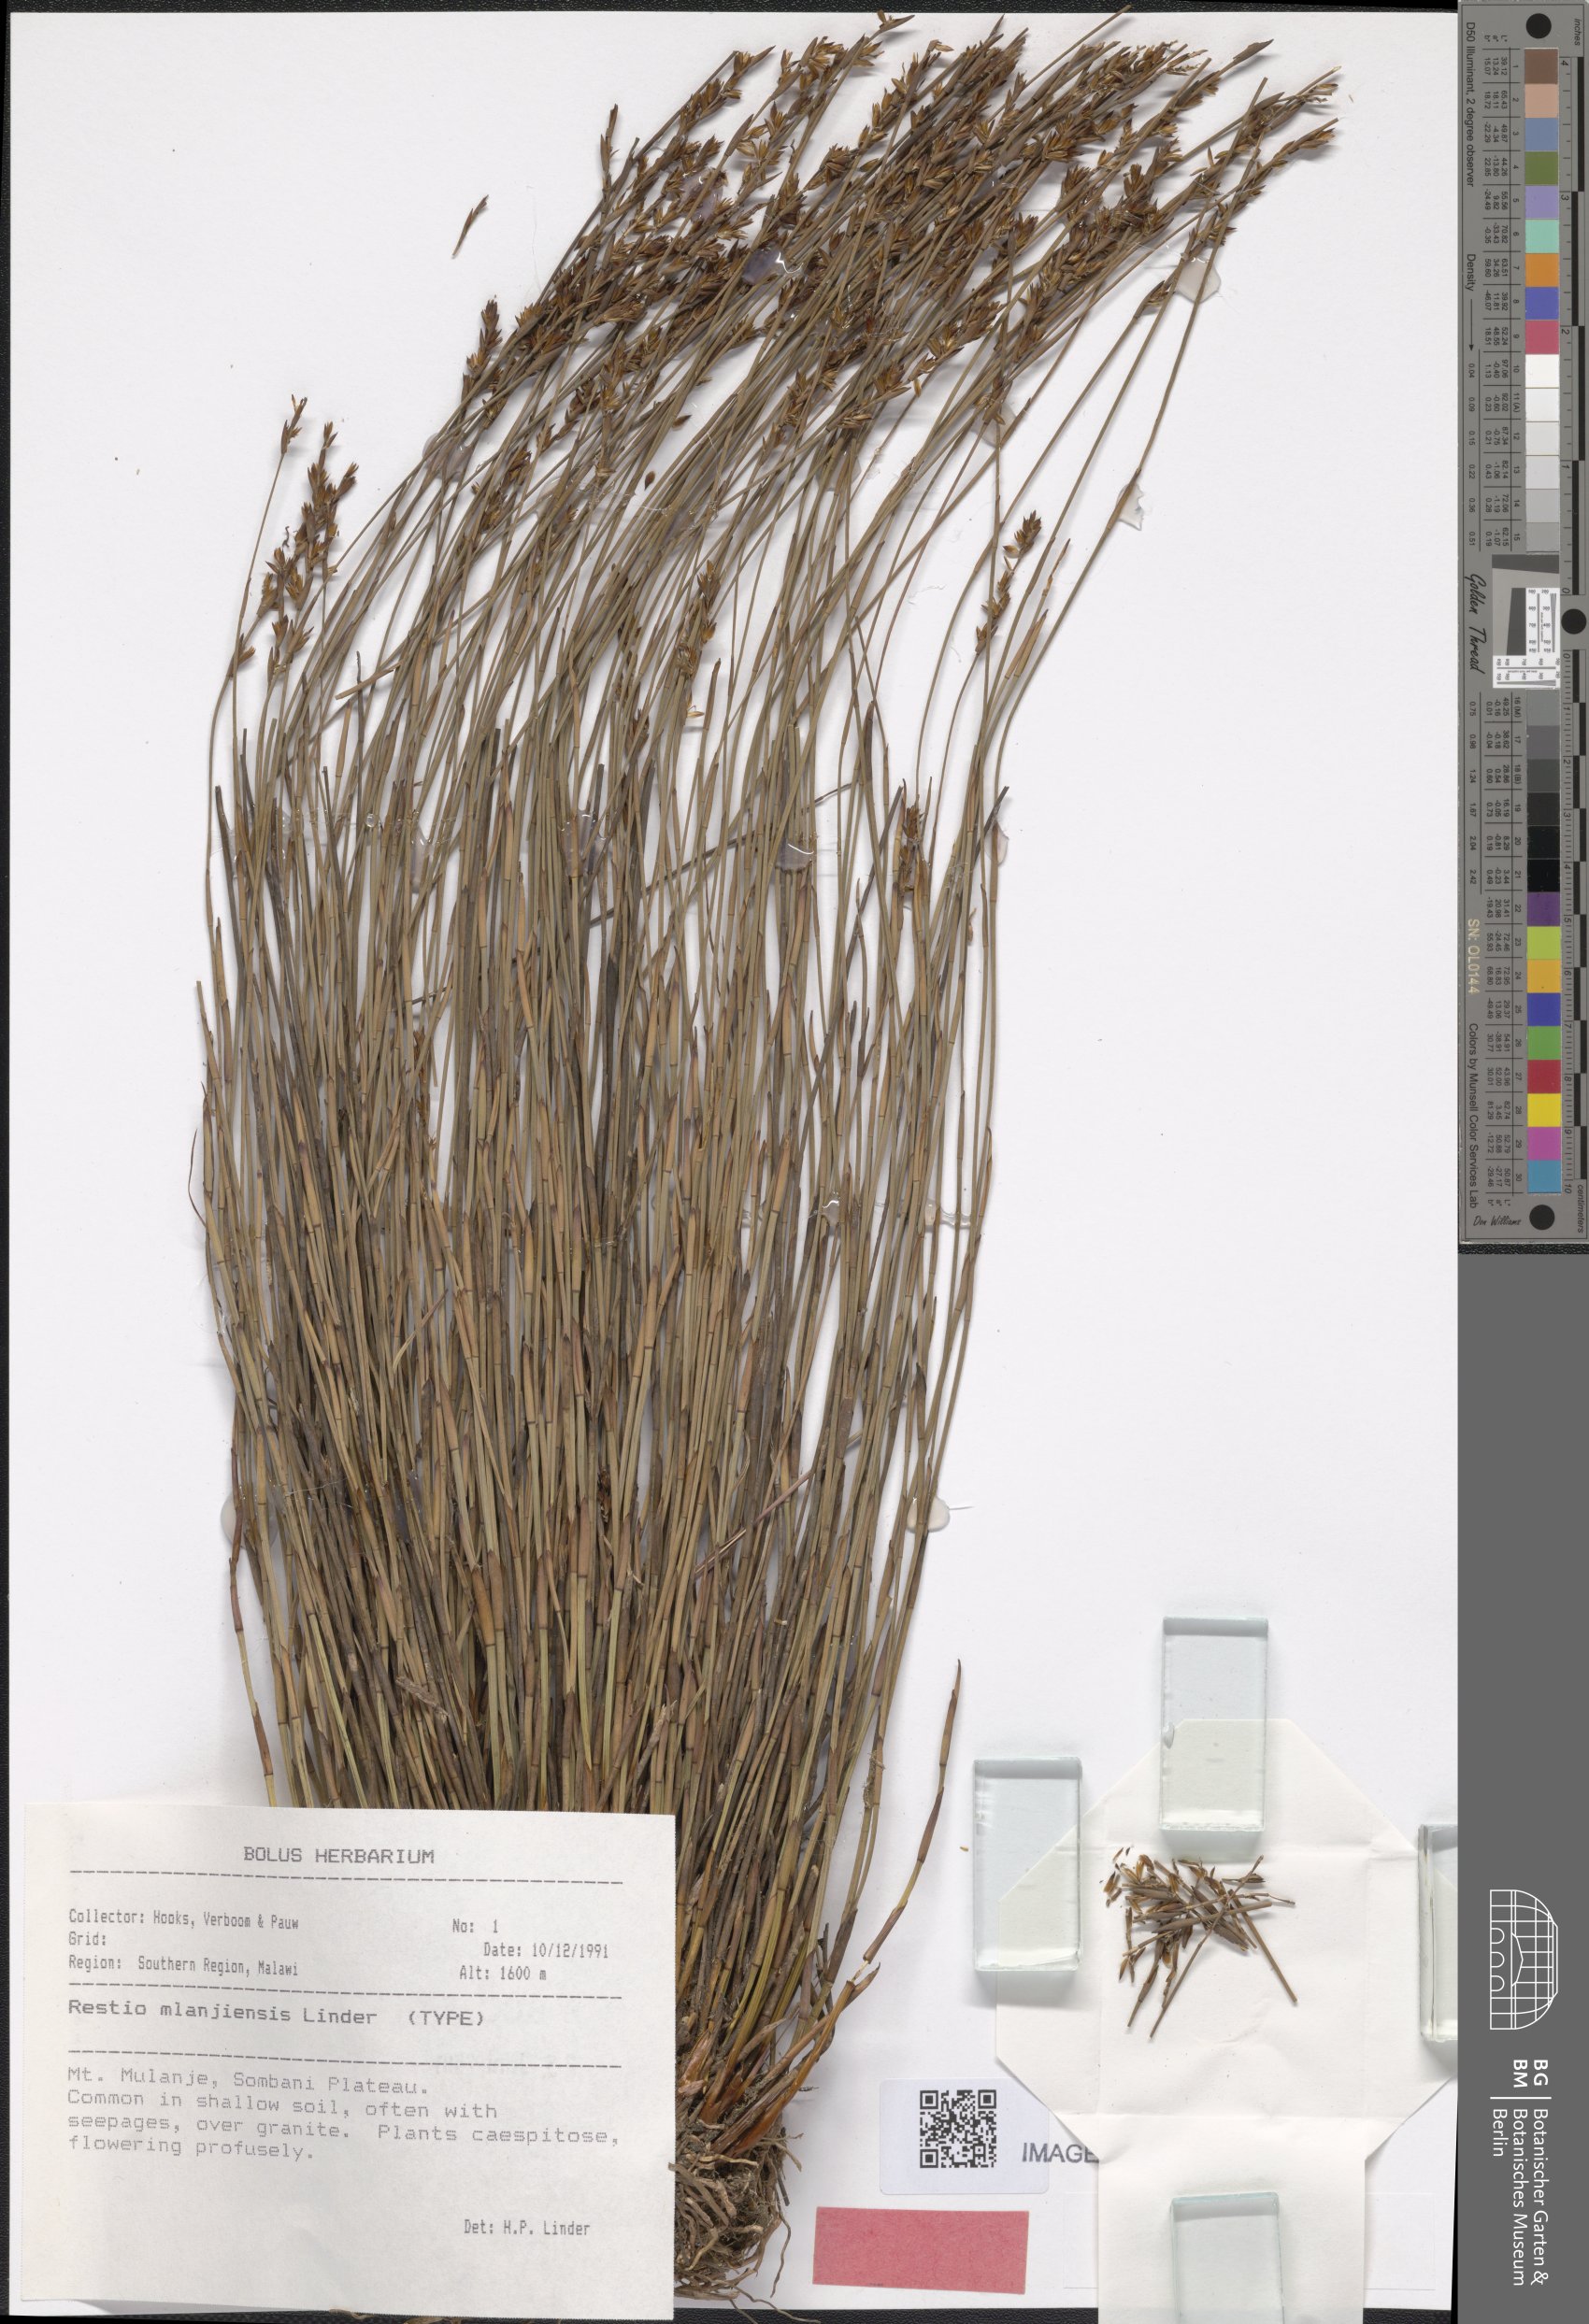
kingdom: Plantae
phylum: Tracheophyta
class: Liliopsida
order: Poales
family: Restionaceae
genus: Platycaulos
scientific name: Platycaulos mlanjiensis
